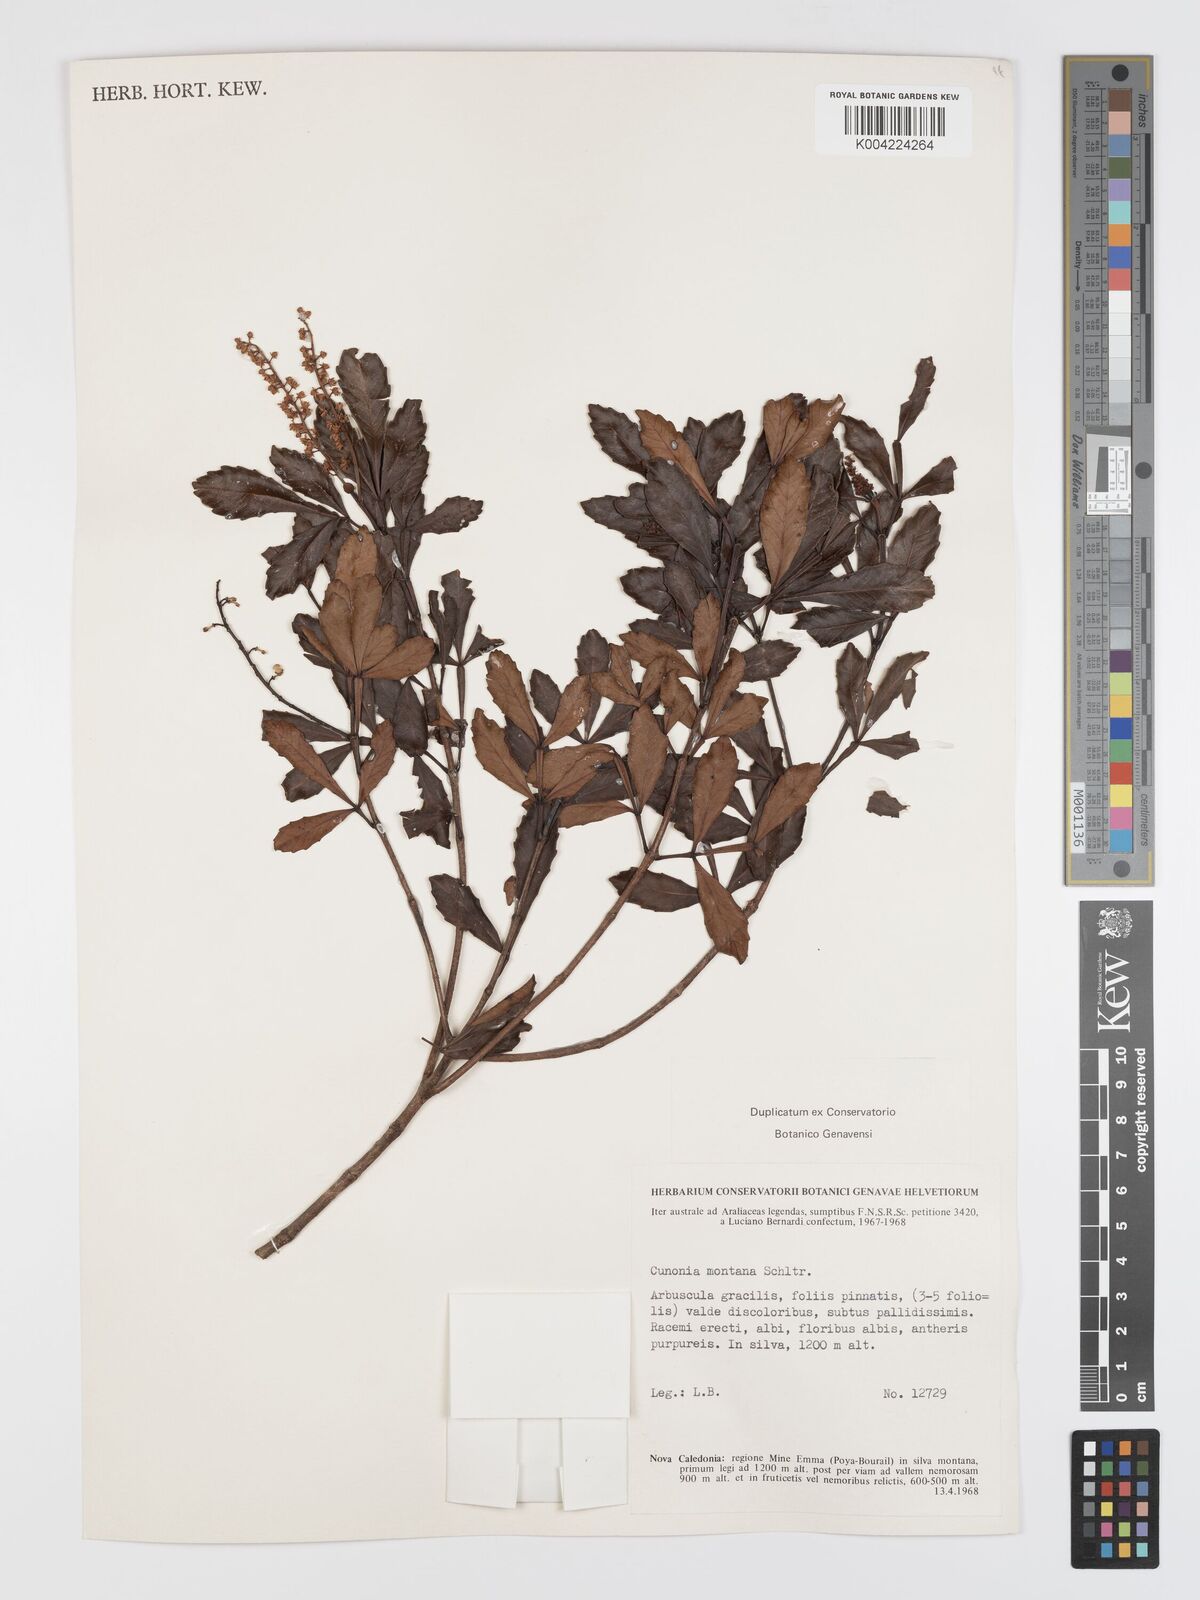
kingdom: Plantae
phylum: Tracheophyta
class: Magnoliopsida
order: Oxalidales
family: Cunoniaceae
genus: Cunonia
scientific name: Cunonia montana
